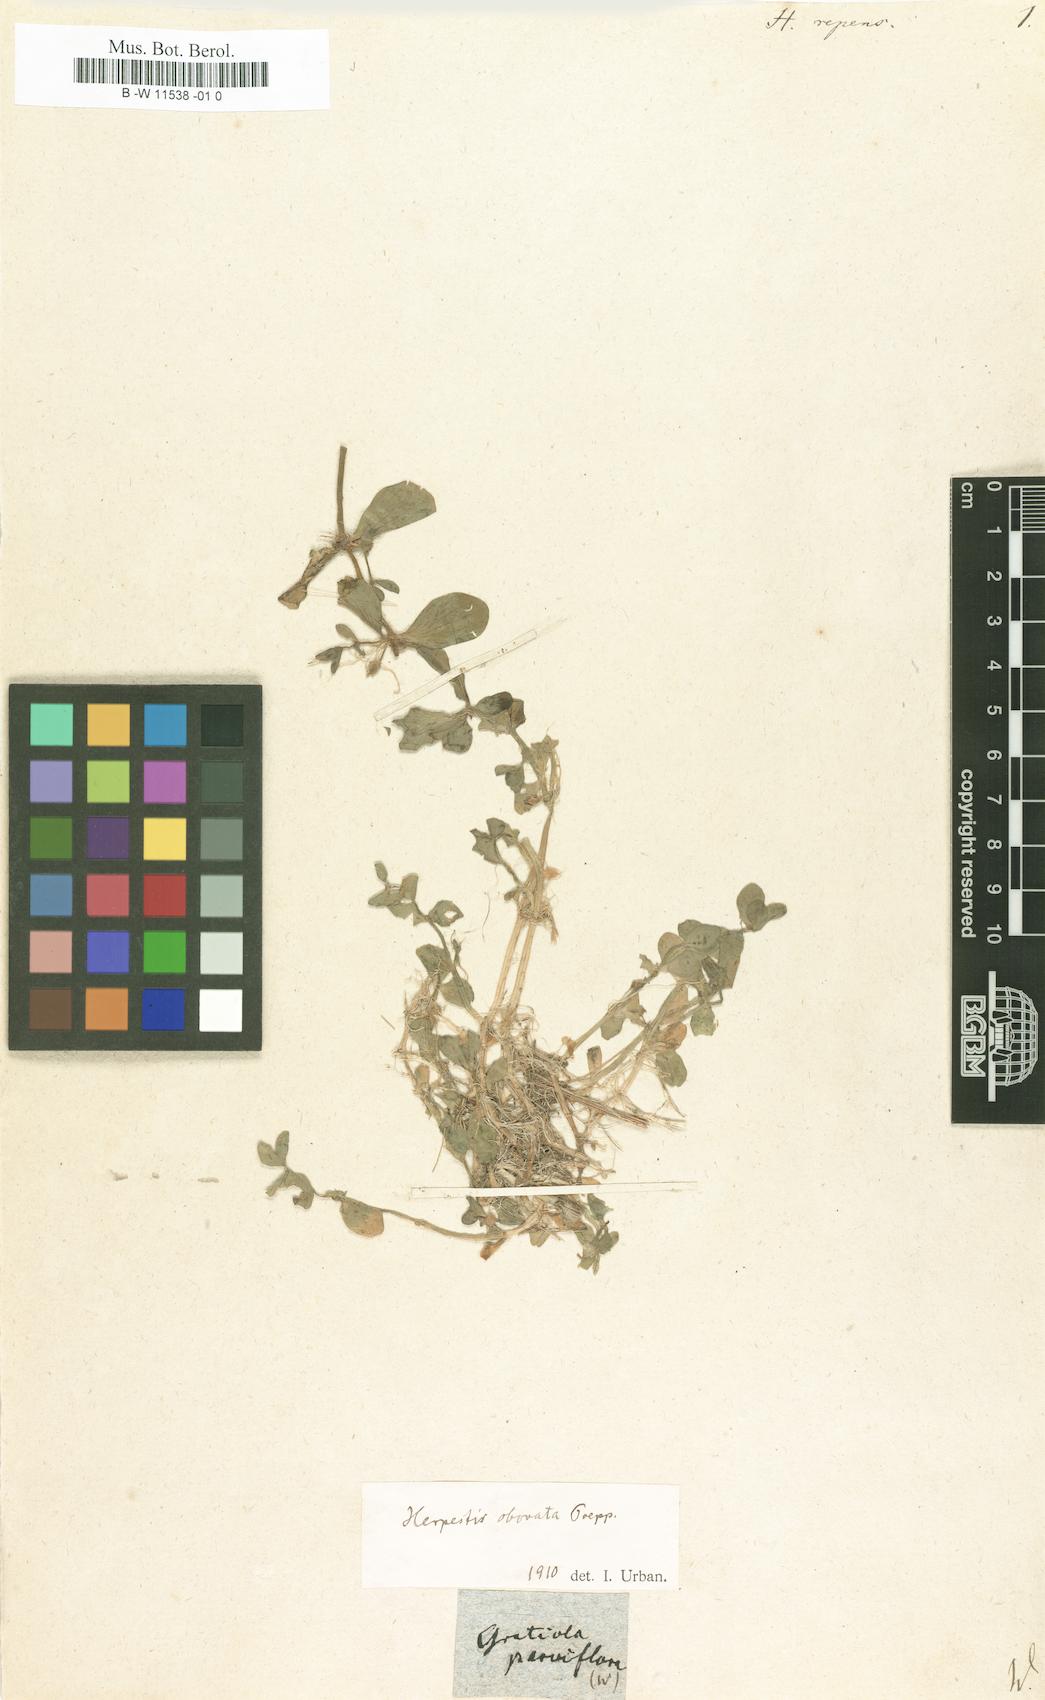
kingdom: Plantae
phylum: Tracheophyta
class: Magnoliopsida
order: Lamiales
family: Plantaginaceae
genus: Bacopa
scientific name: Bacopa reptans
